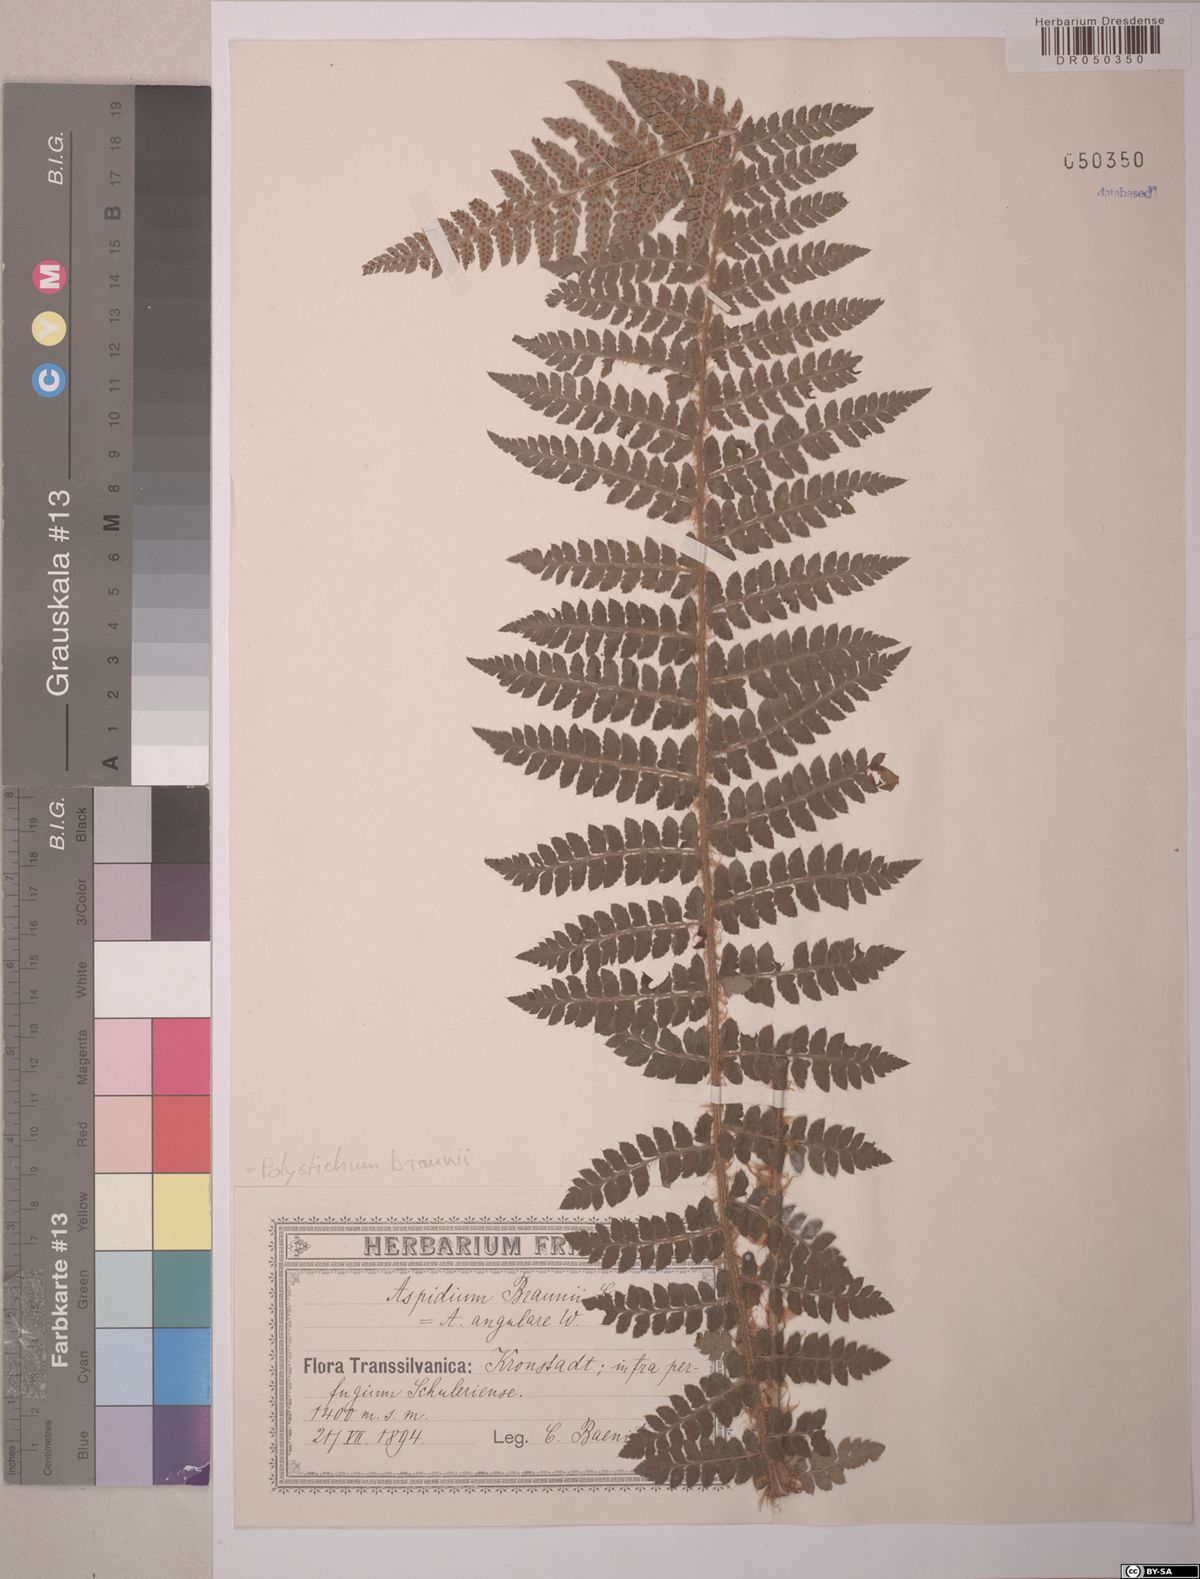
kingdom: Plantae
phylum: Tracheophyta
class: Polypodiopsida
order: Polypodiales
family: Dryopteridaceae
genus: Polystichum
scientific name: Polystichum braunii
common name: Braun's holly fern
